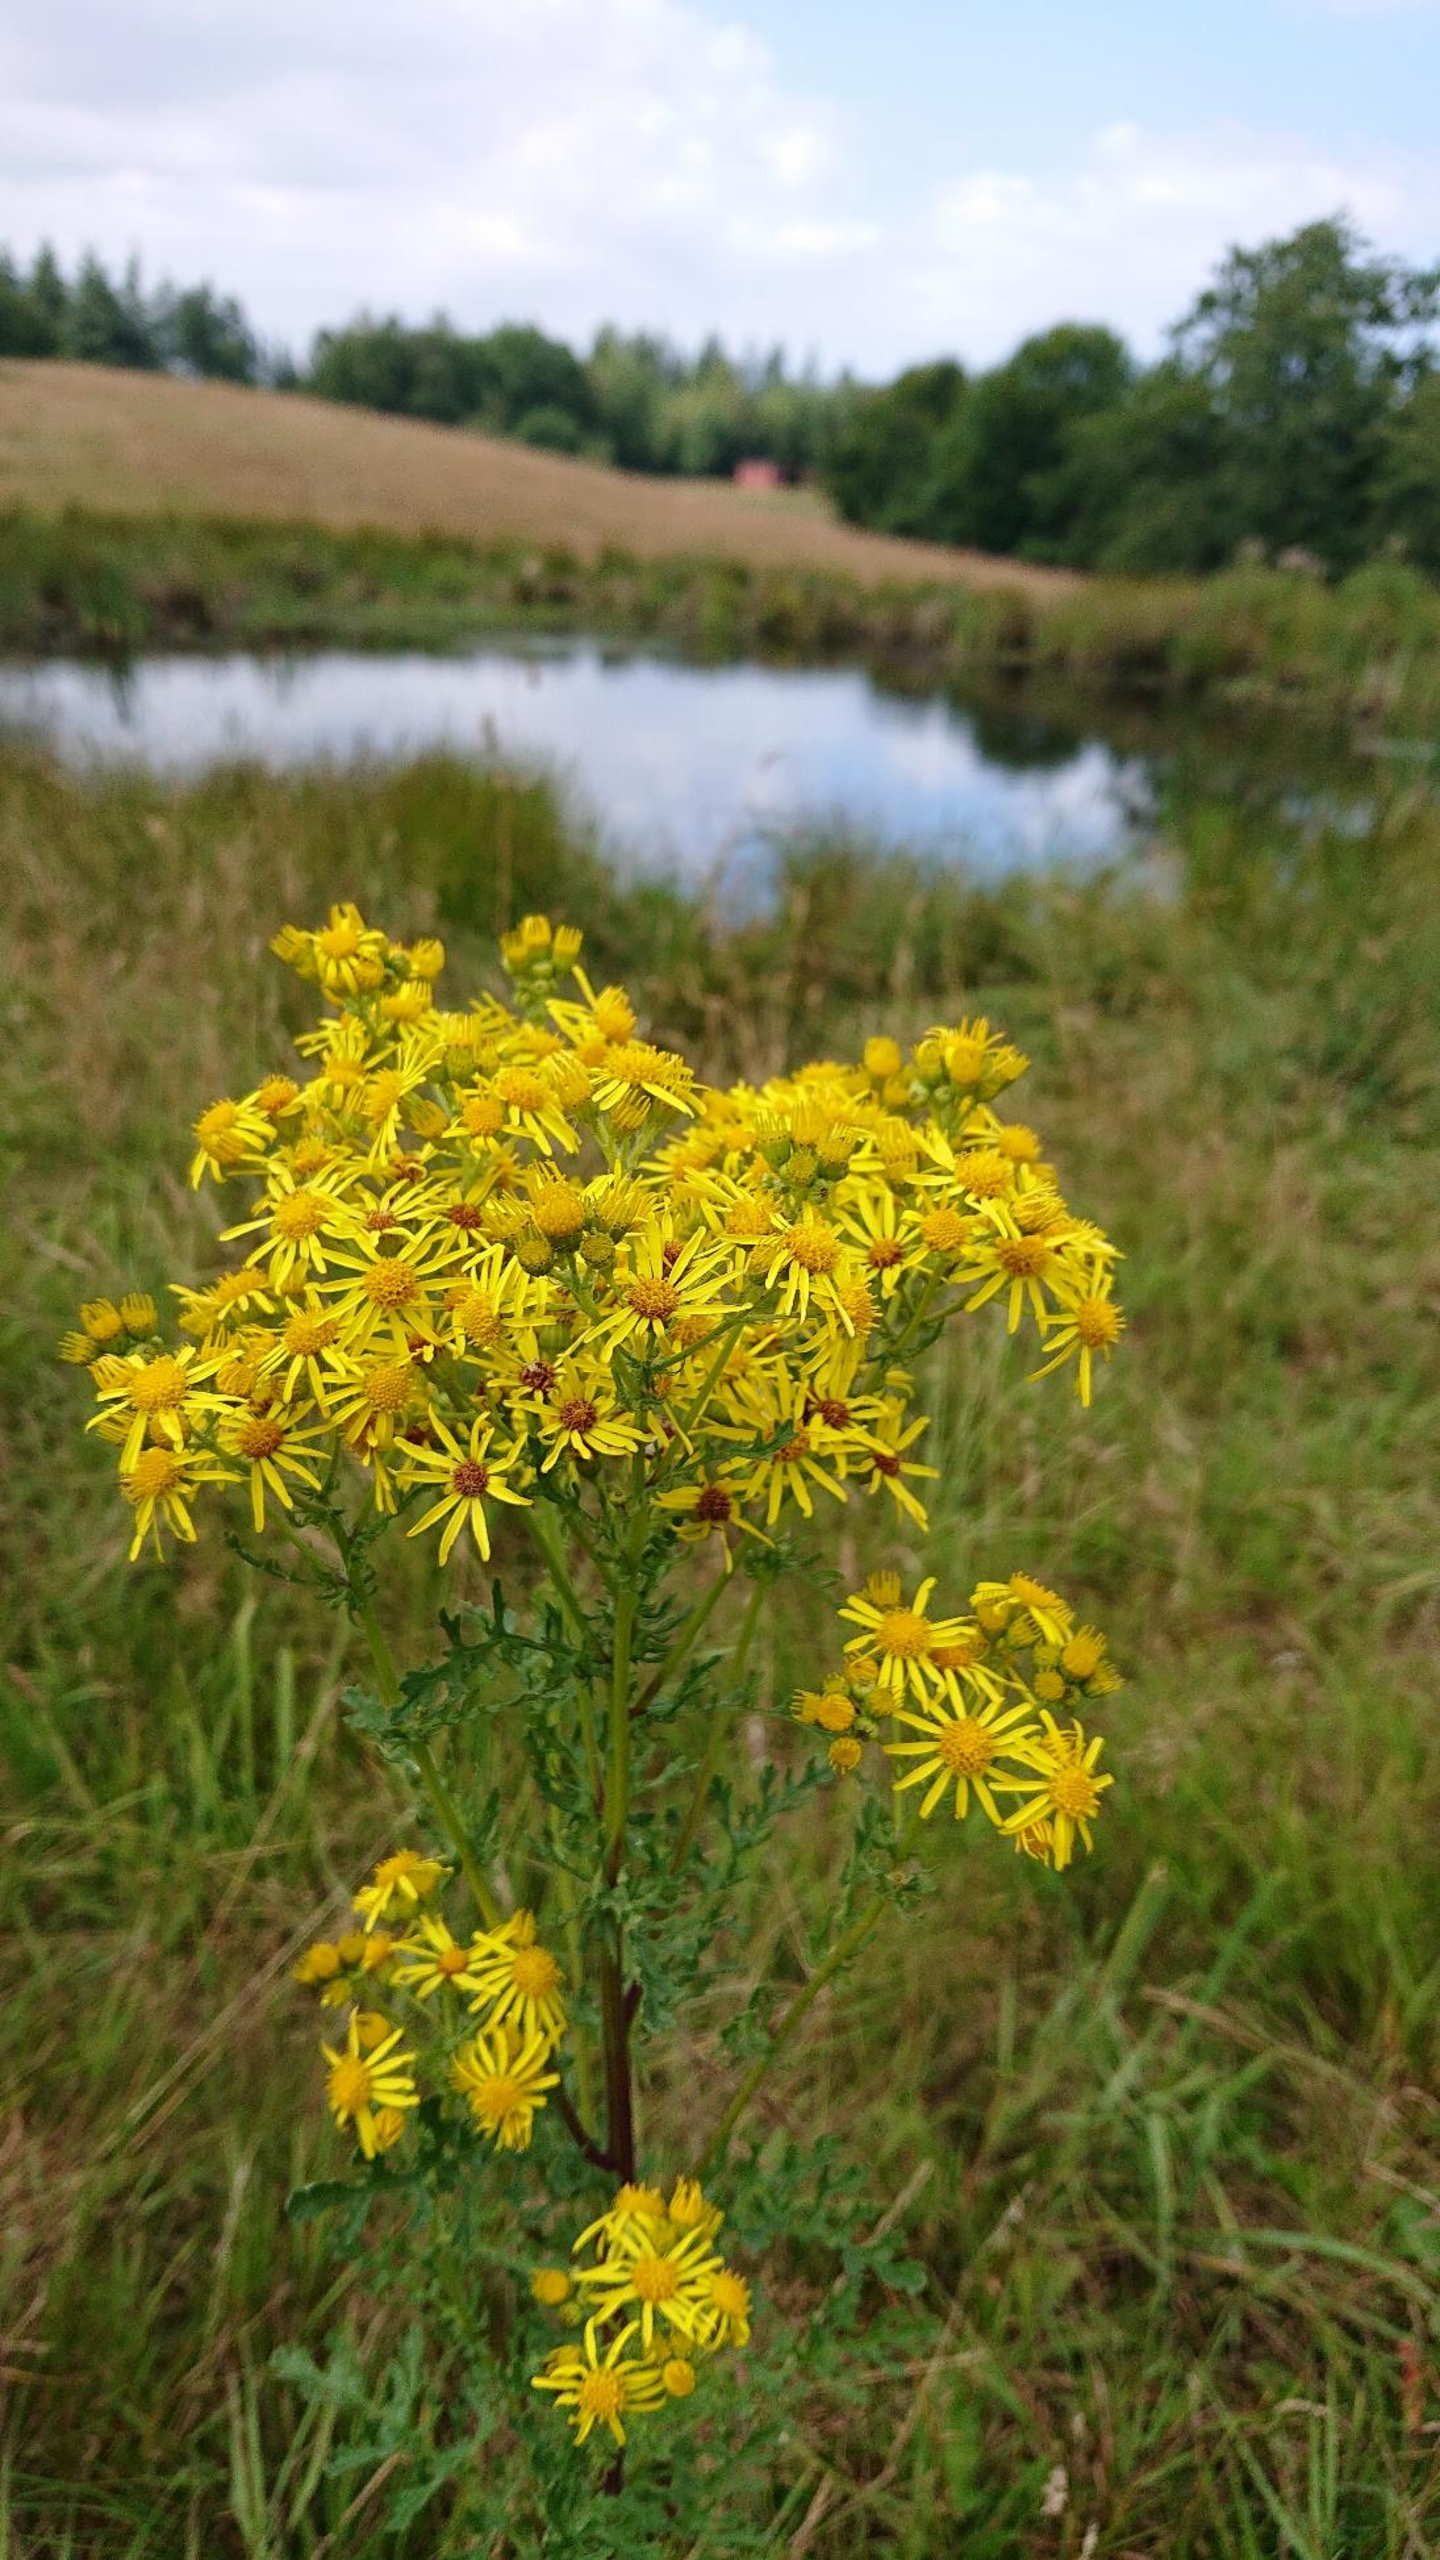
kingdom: Plantae
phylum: Tracheophyta
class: Magnoliopsida
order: Asterales
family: Asteraceae
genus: Jacobaea
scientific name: Jacobaea vulgaris
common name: Eng-brandbæger
